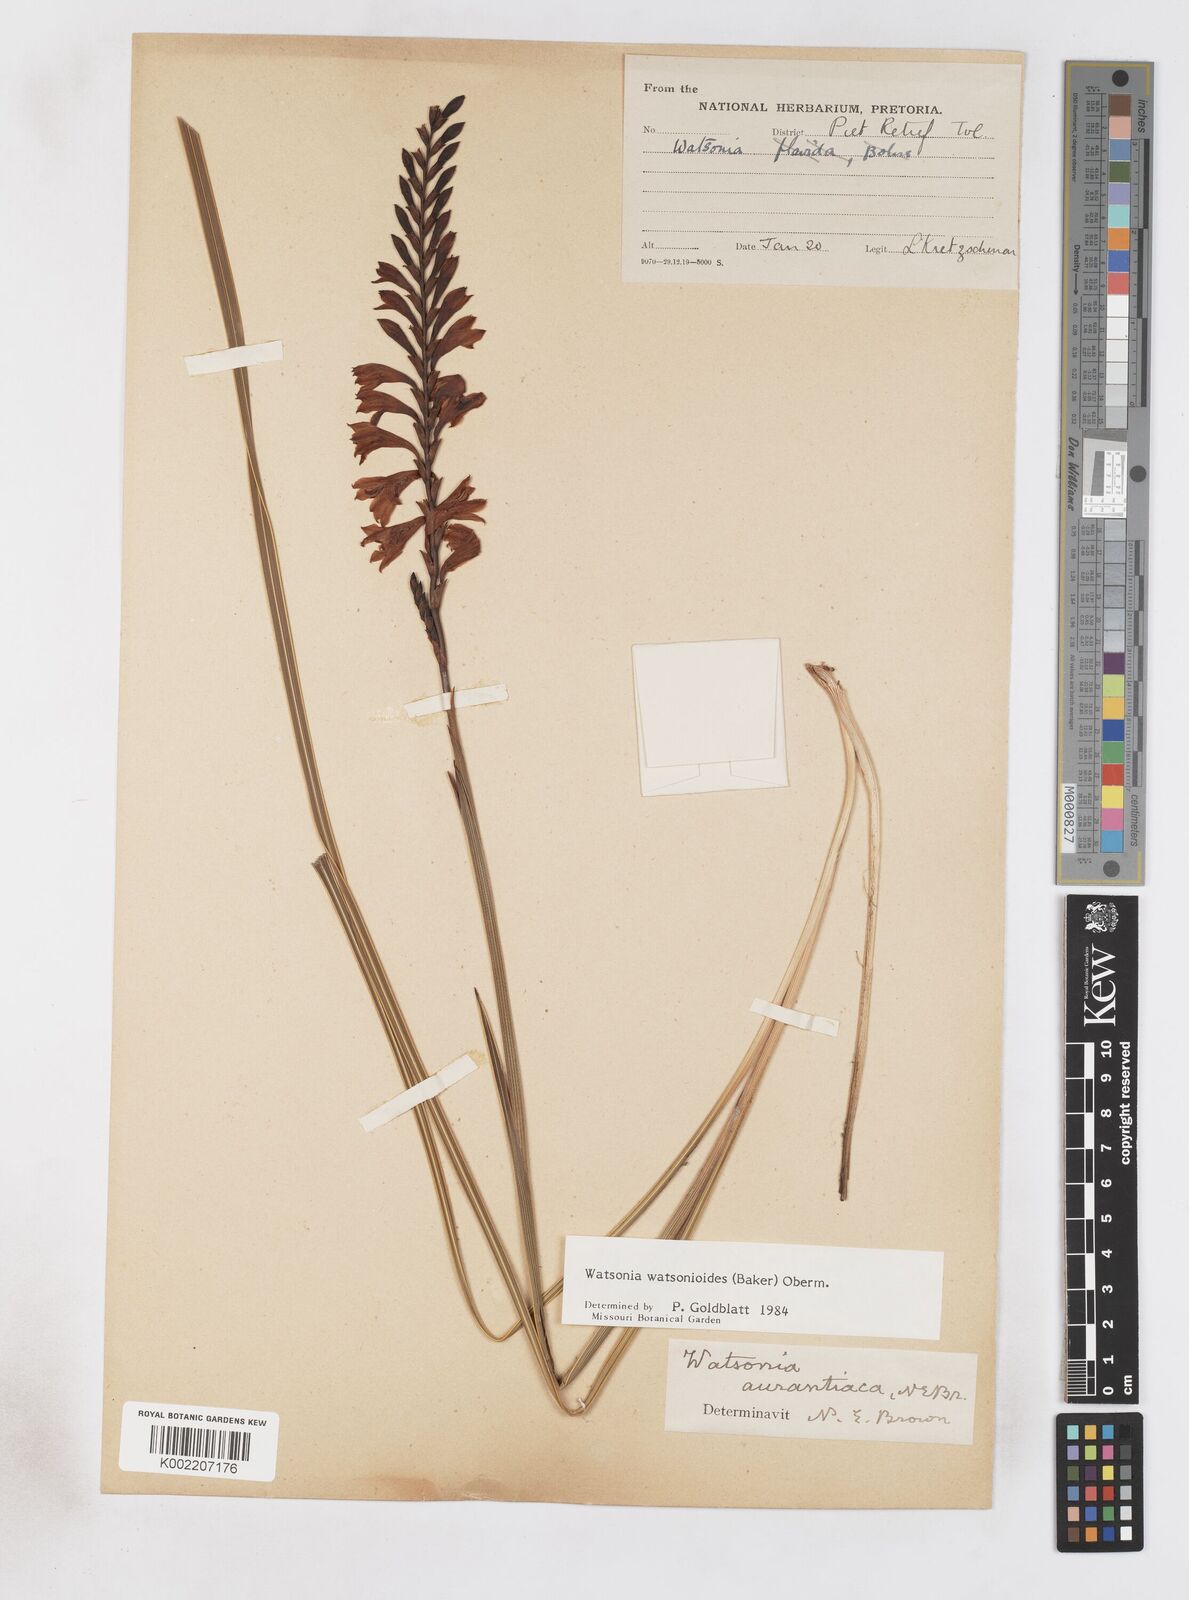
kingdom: Plantae
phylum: Tracheophyta
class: Liliopsida
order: Asparagales
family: Iridaceae
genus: Watsonia
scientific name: Watsonia watsonioides
